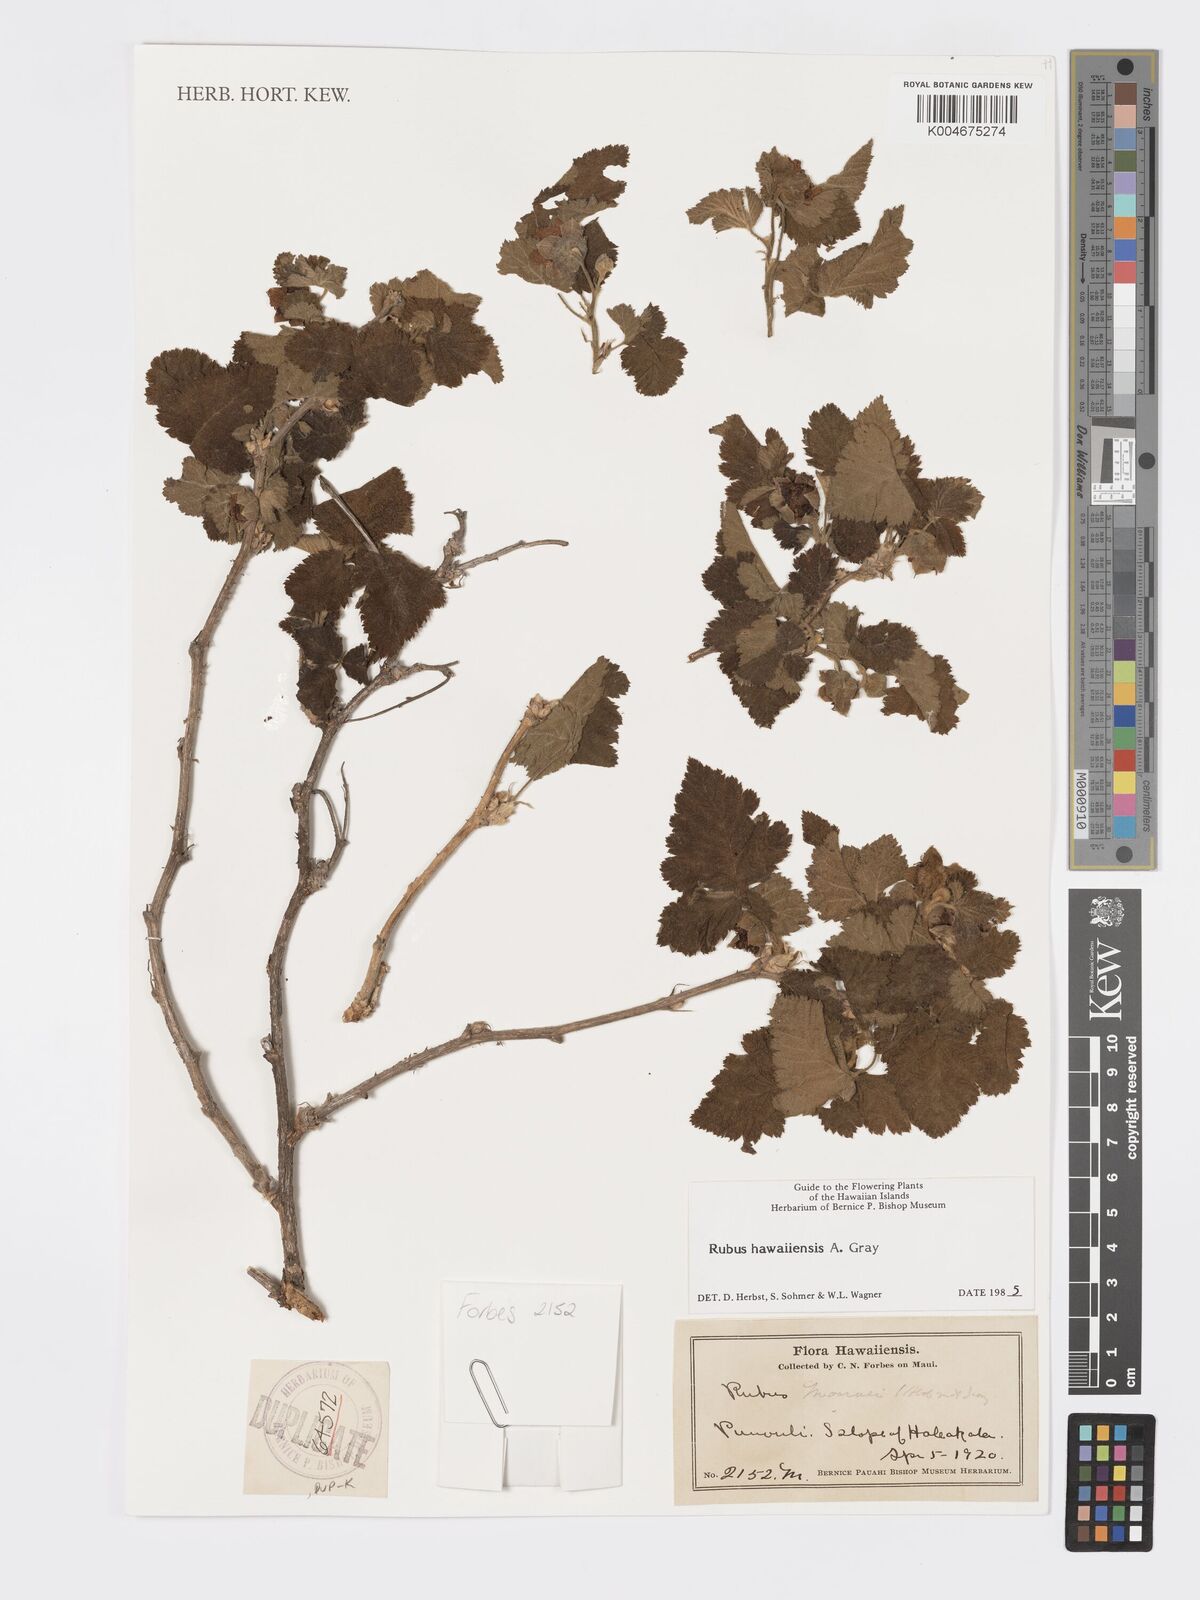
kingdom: Plantae
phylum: Tracheophyta
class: Magnoliopsida
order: Rosales
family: Rosaceae
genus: Rubus
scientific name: Rubus hawaiensis
